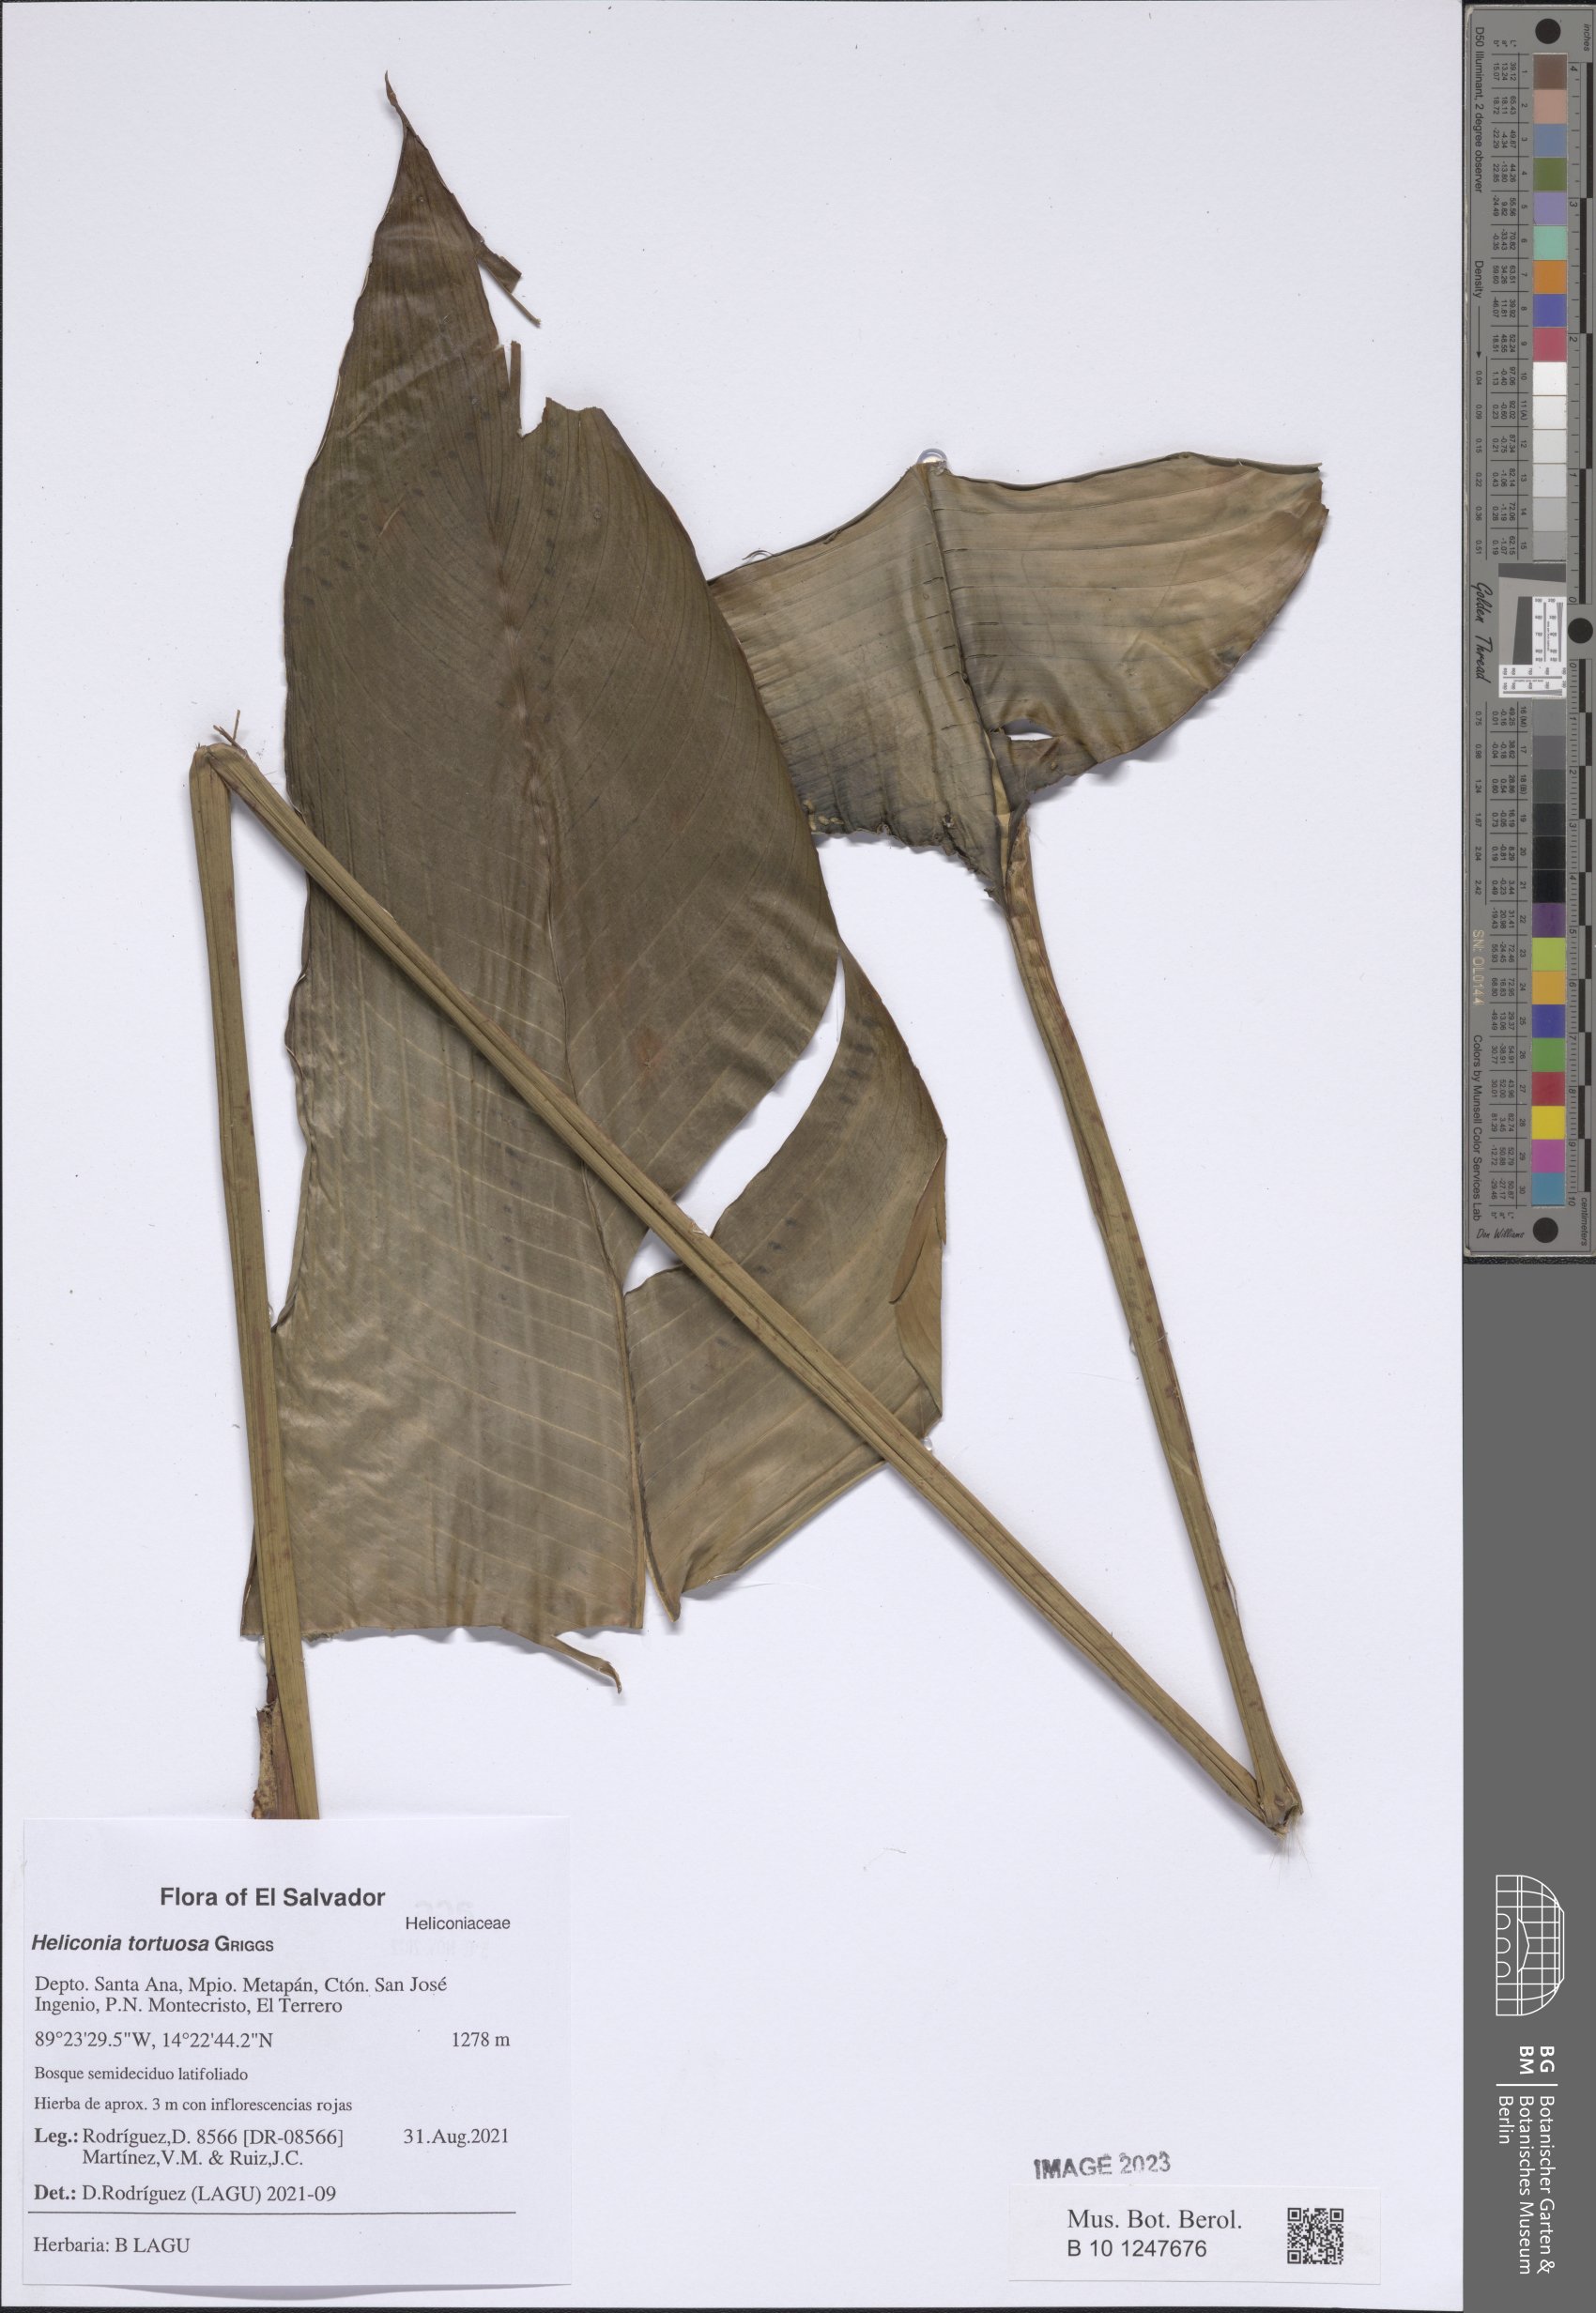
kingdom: Plantae
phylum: Tracheophyta
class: Liliopsida
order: Zingiberales
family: Heliconiaceae
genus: Heliconia
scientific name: Heliconia tortuosa
